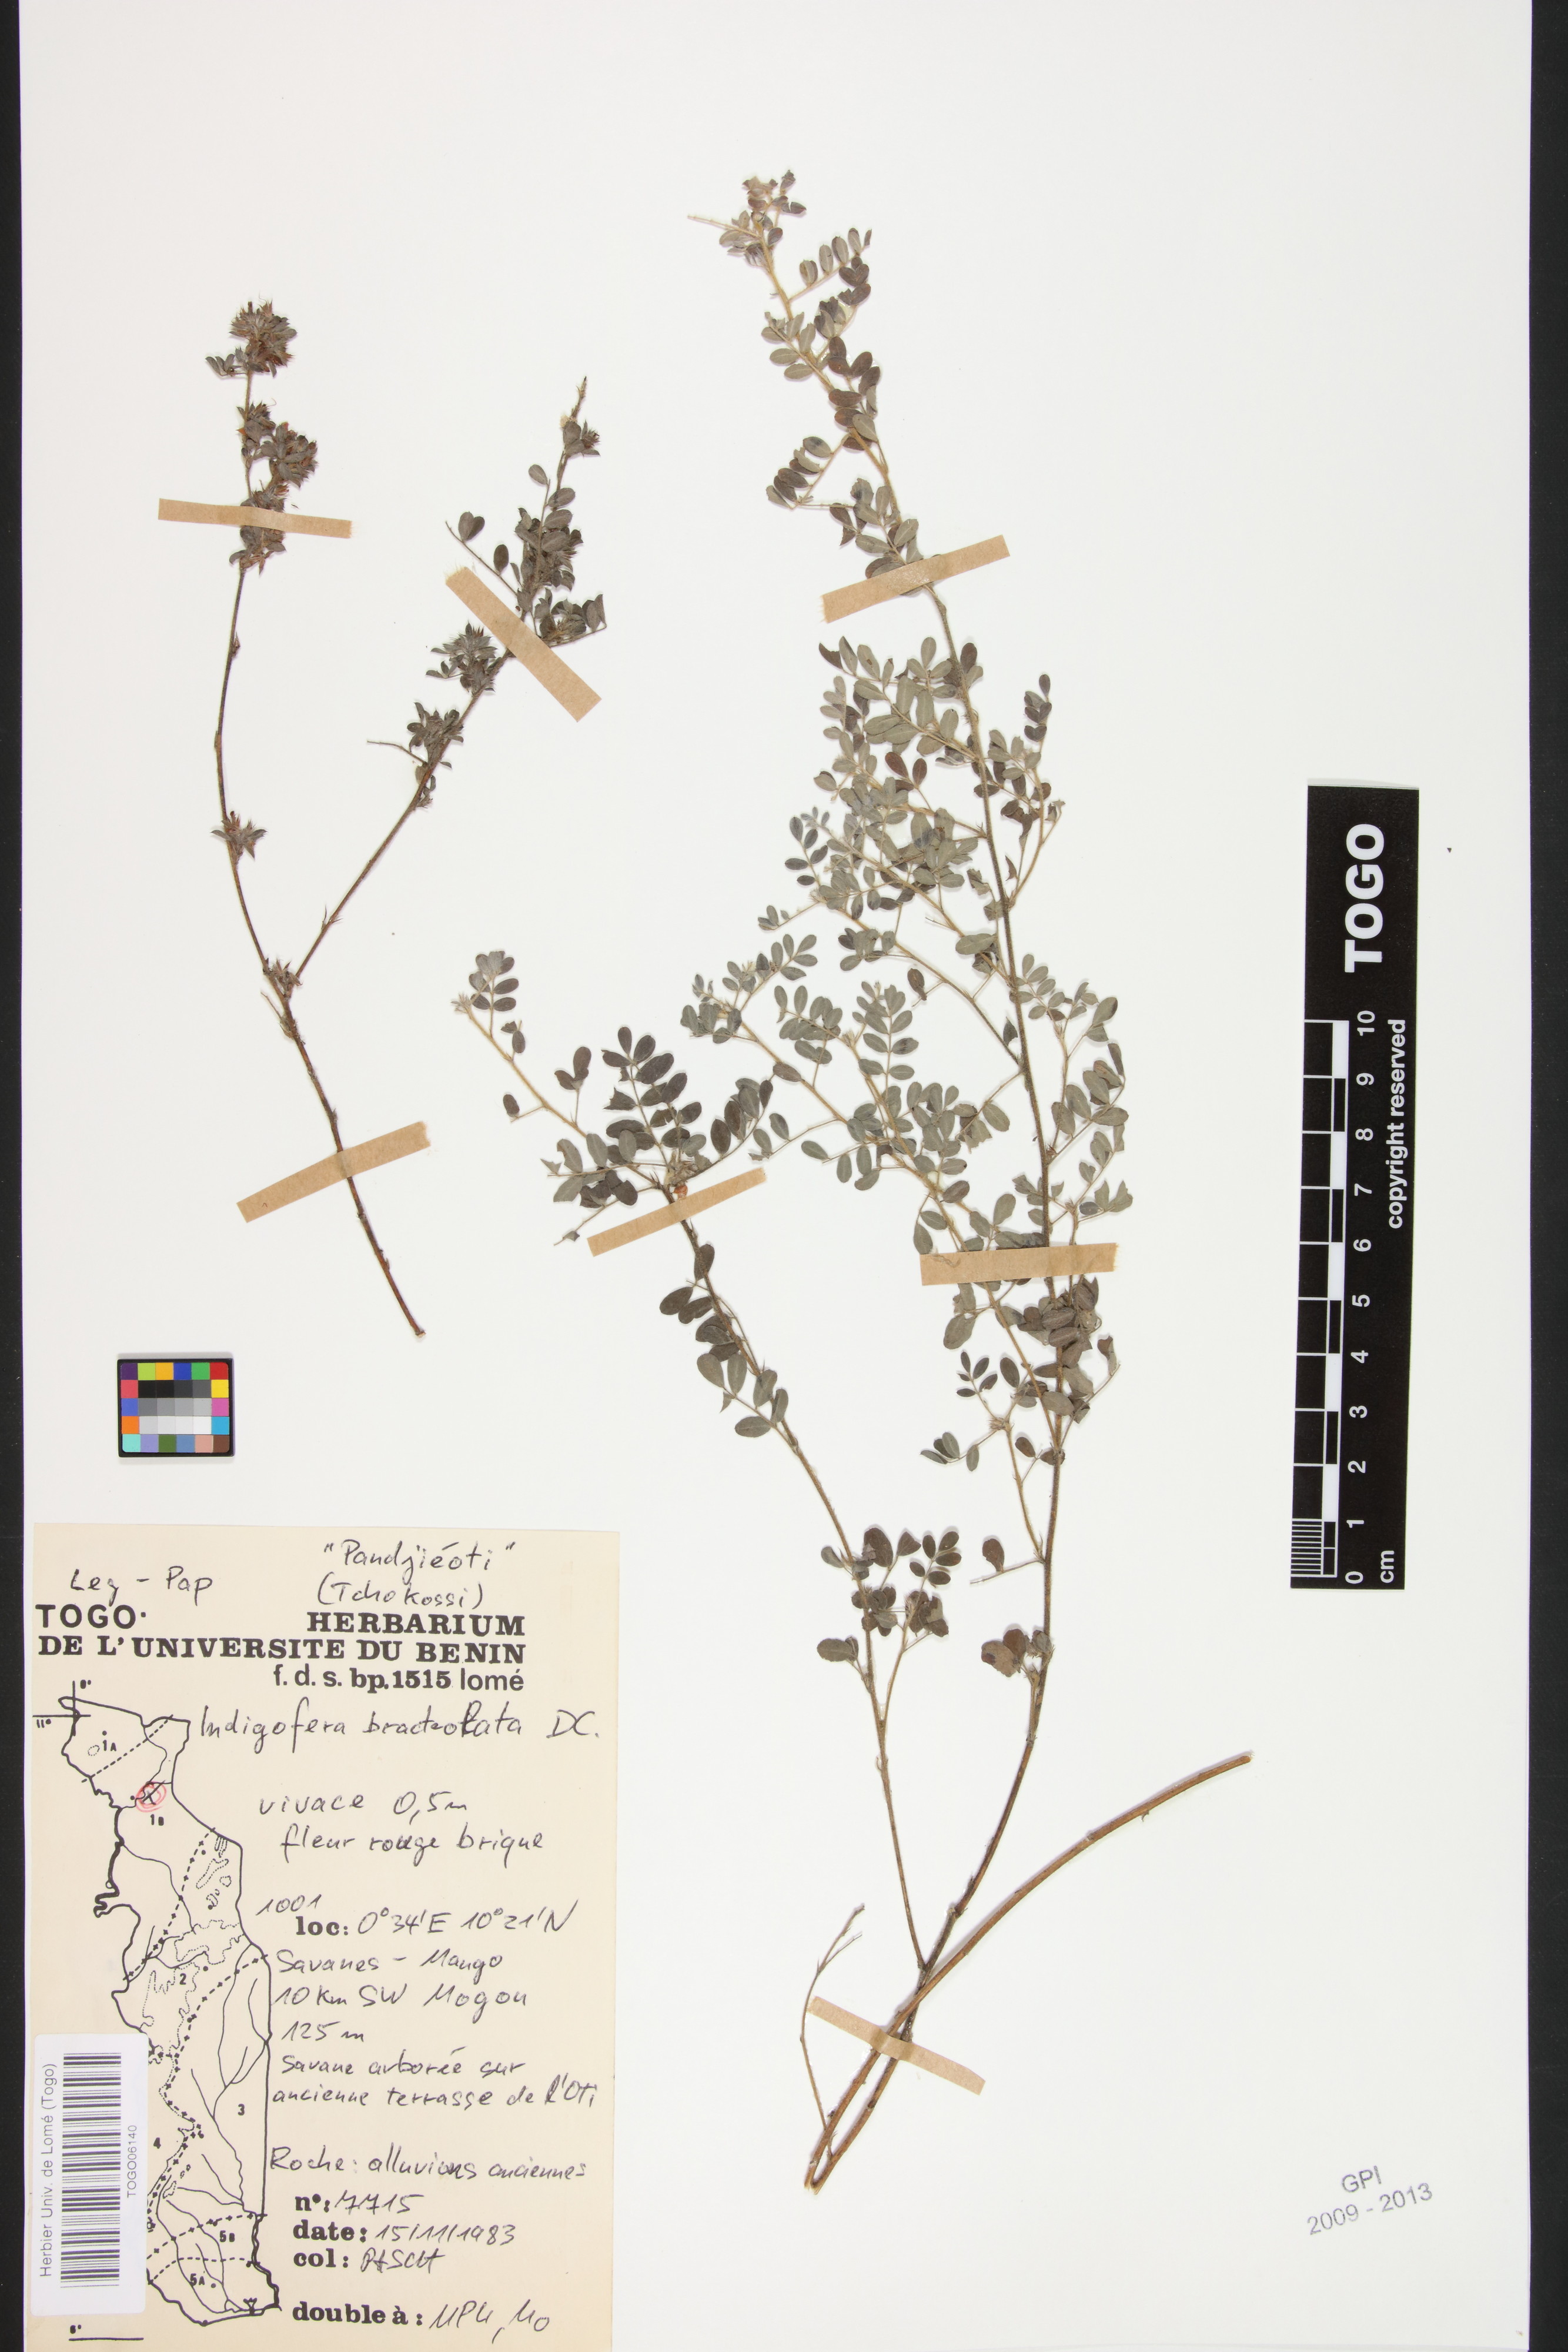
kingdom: Plantae
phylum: Tracheophyta
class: Magnoliopsida
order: Fabales
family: Fabaceae
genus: Indigofera
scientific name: Indigofera bracteolata
